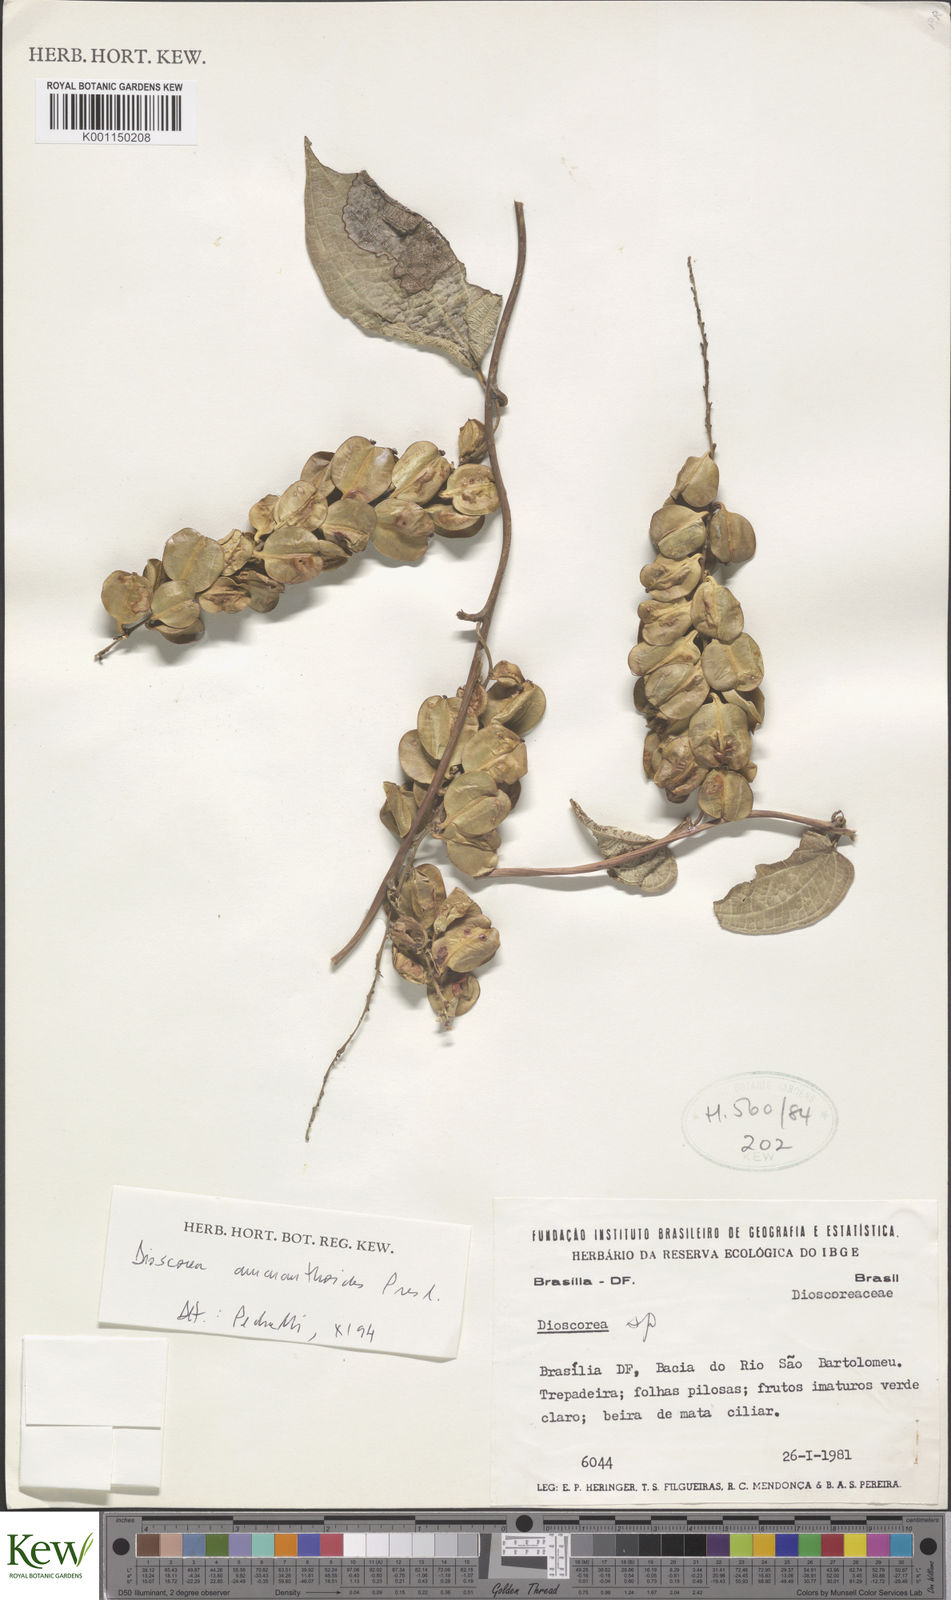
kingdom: Plantae
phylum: Tracheophyta
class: Liliopsida
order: Dioscoreales
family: Dioscoreaceae
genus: Dioscorea
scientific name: Dioscorea
